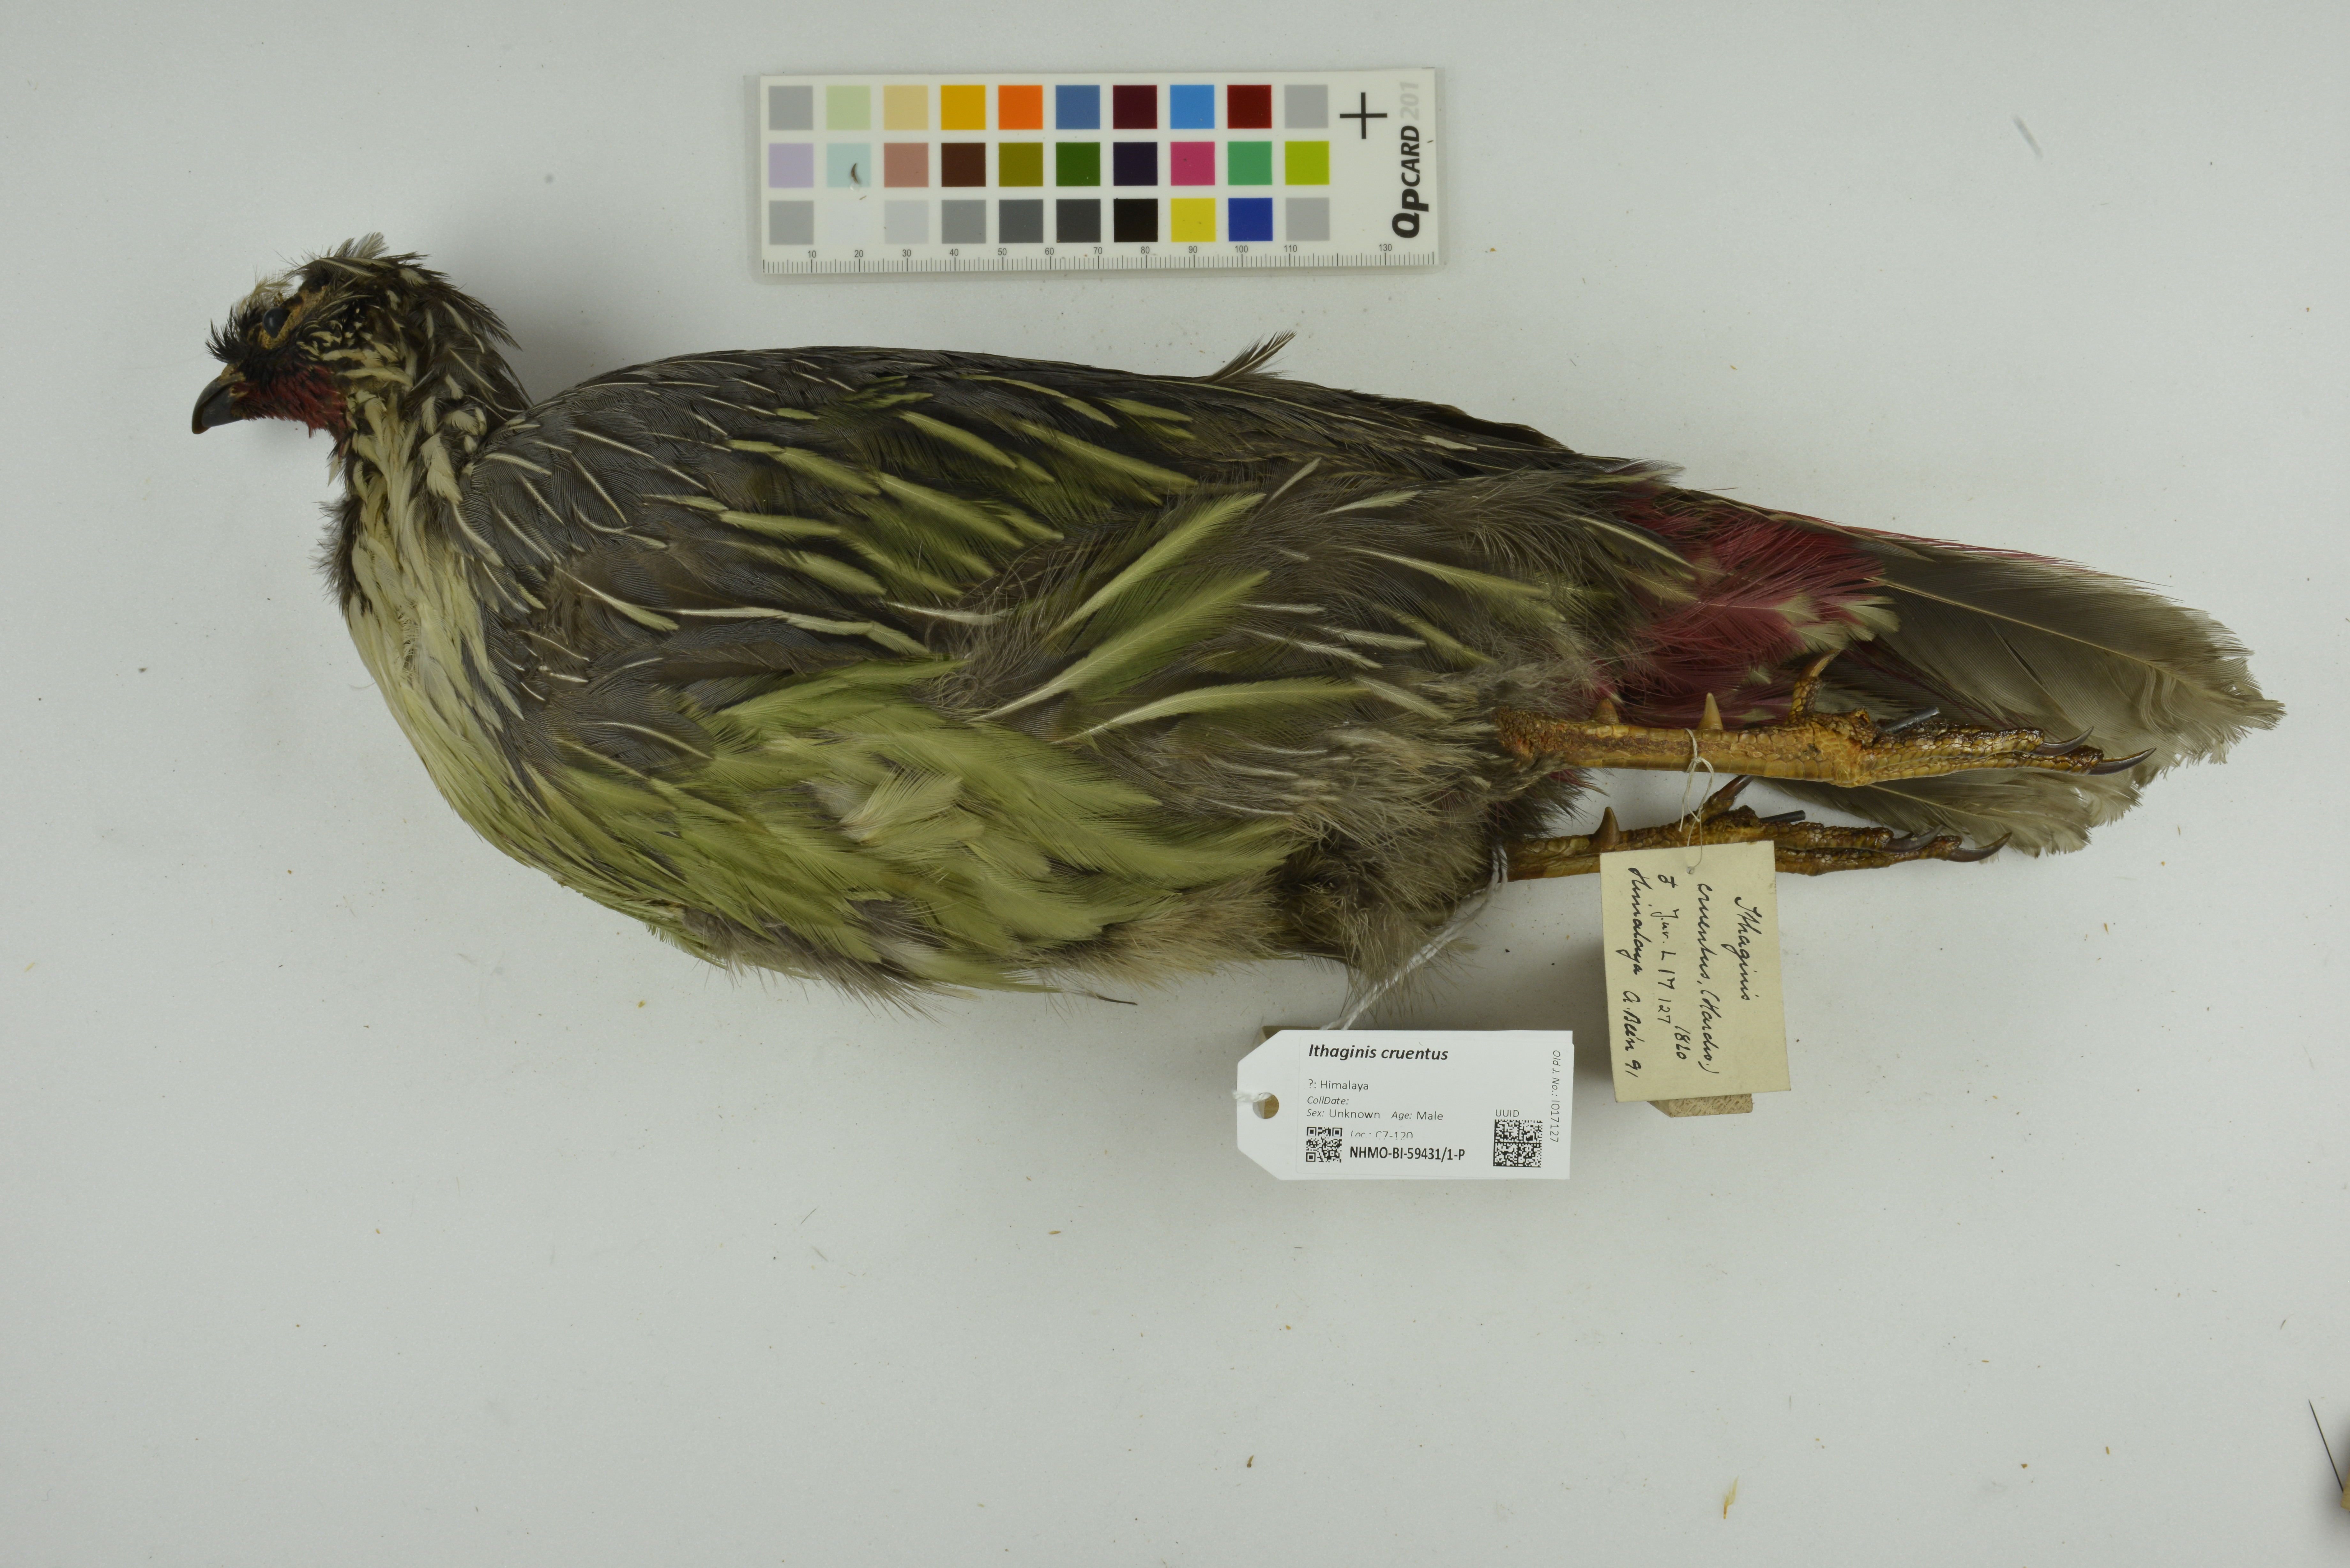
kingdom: Animalia
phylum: Chordata
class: Aves
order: Galliformes
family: Phasianidae
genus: Ithaginis
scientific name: Ithaginis cruentus
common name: Blood pheasant
